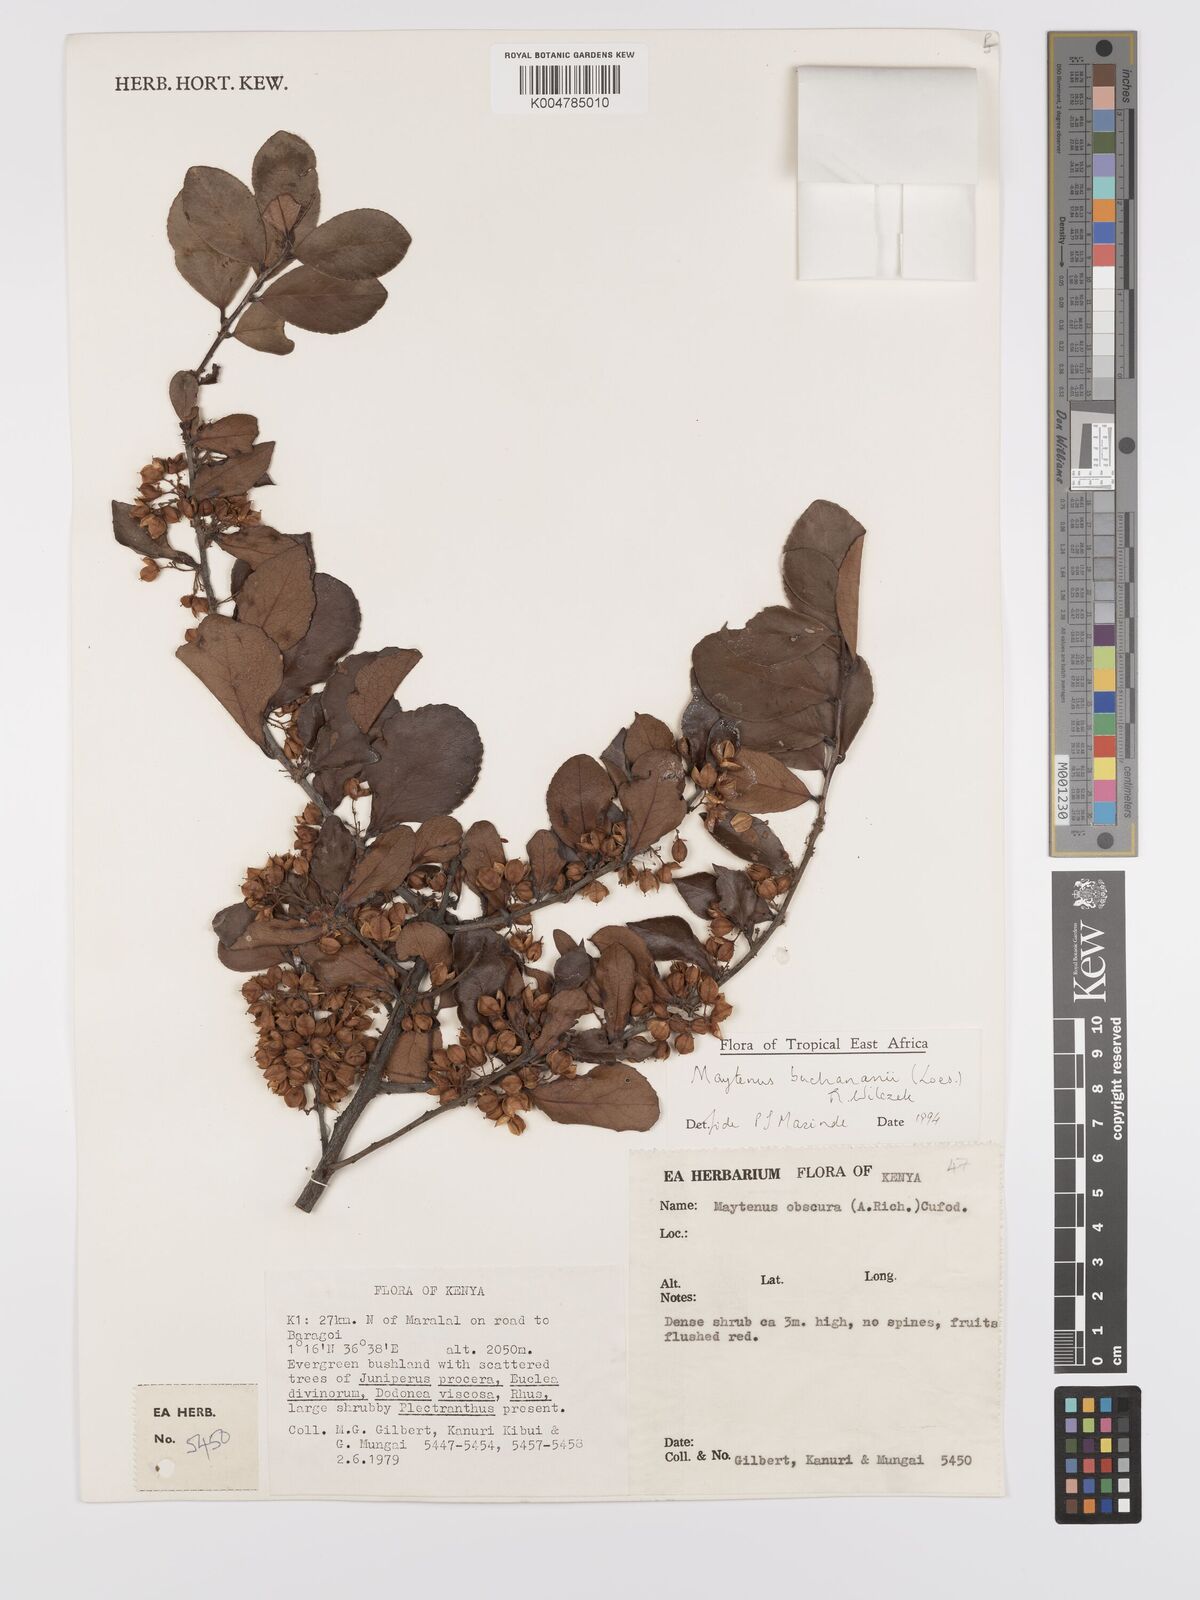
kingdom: Plantae
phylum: Tracheophyta
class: Magnoliopsida
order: Celastrales
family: Celastraceae
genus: Gymnosporia
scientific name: Gymnosporia buchananii
